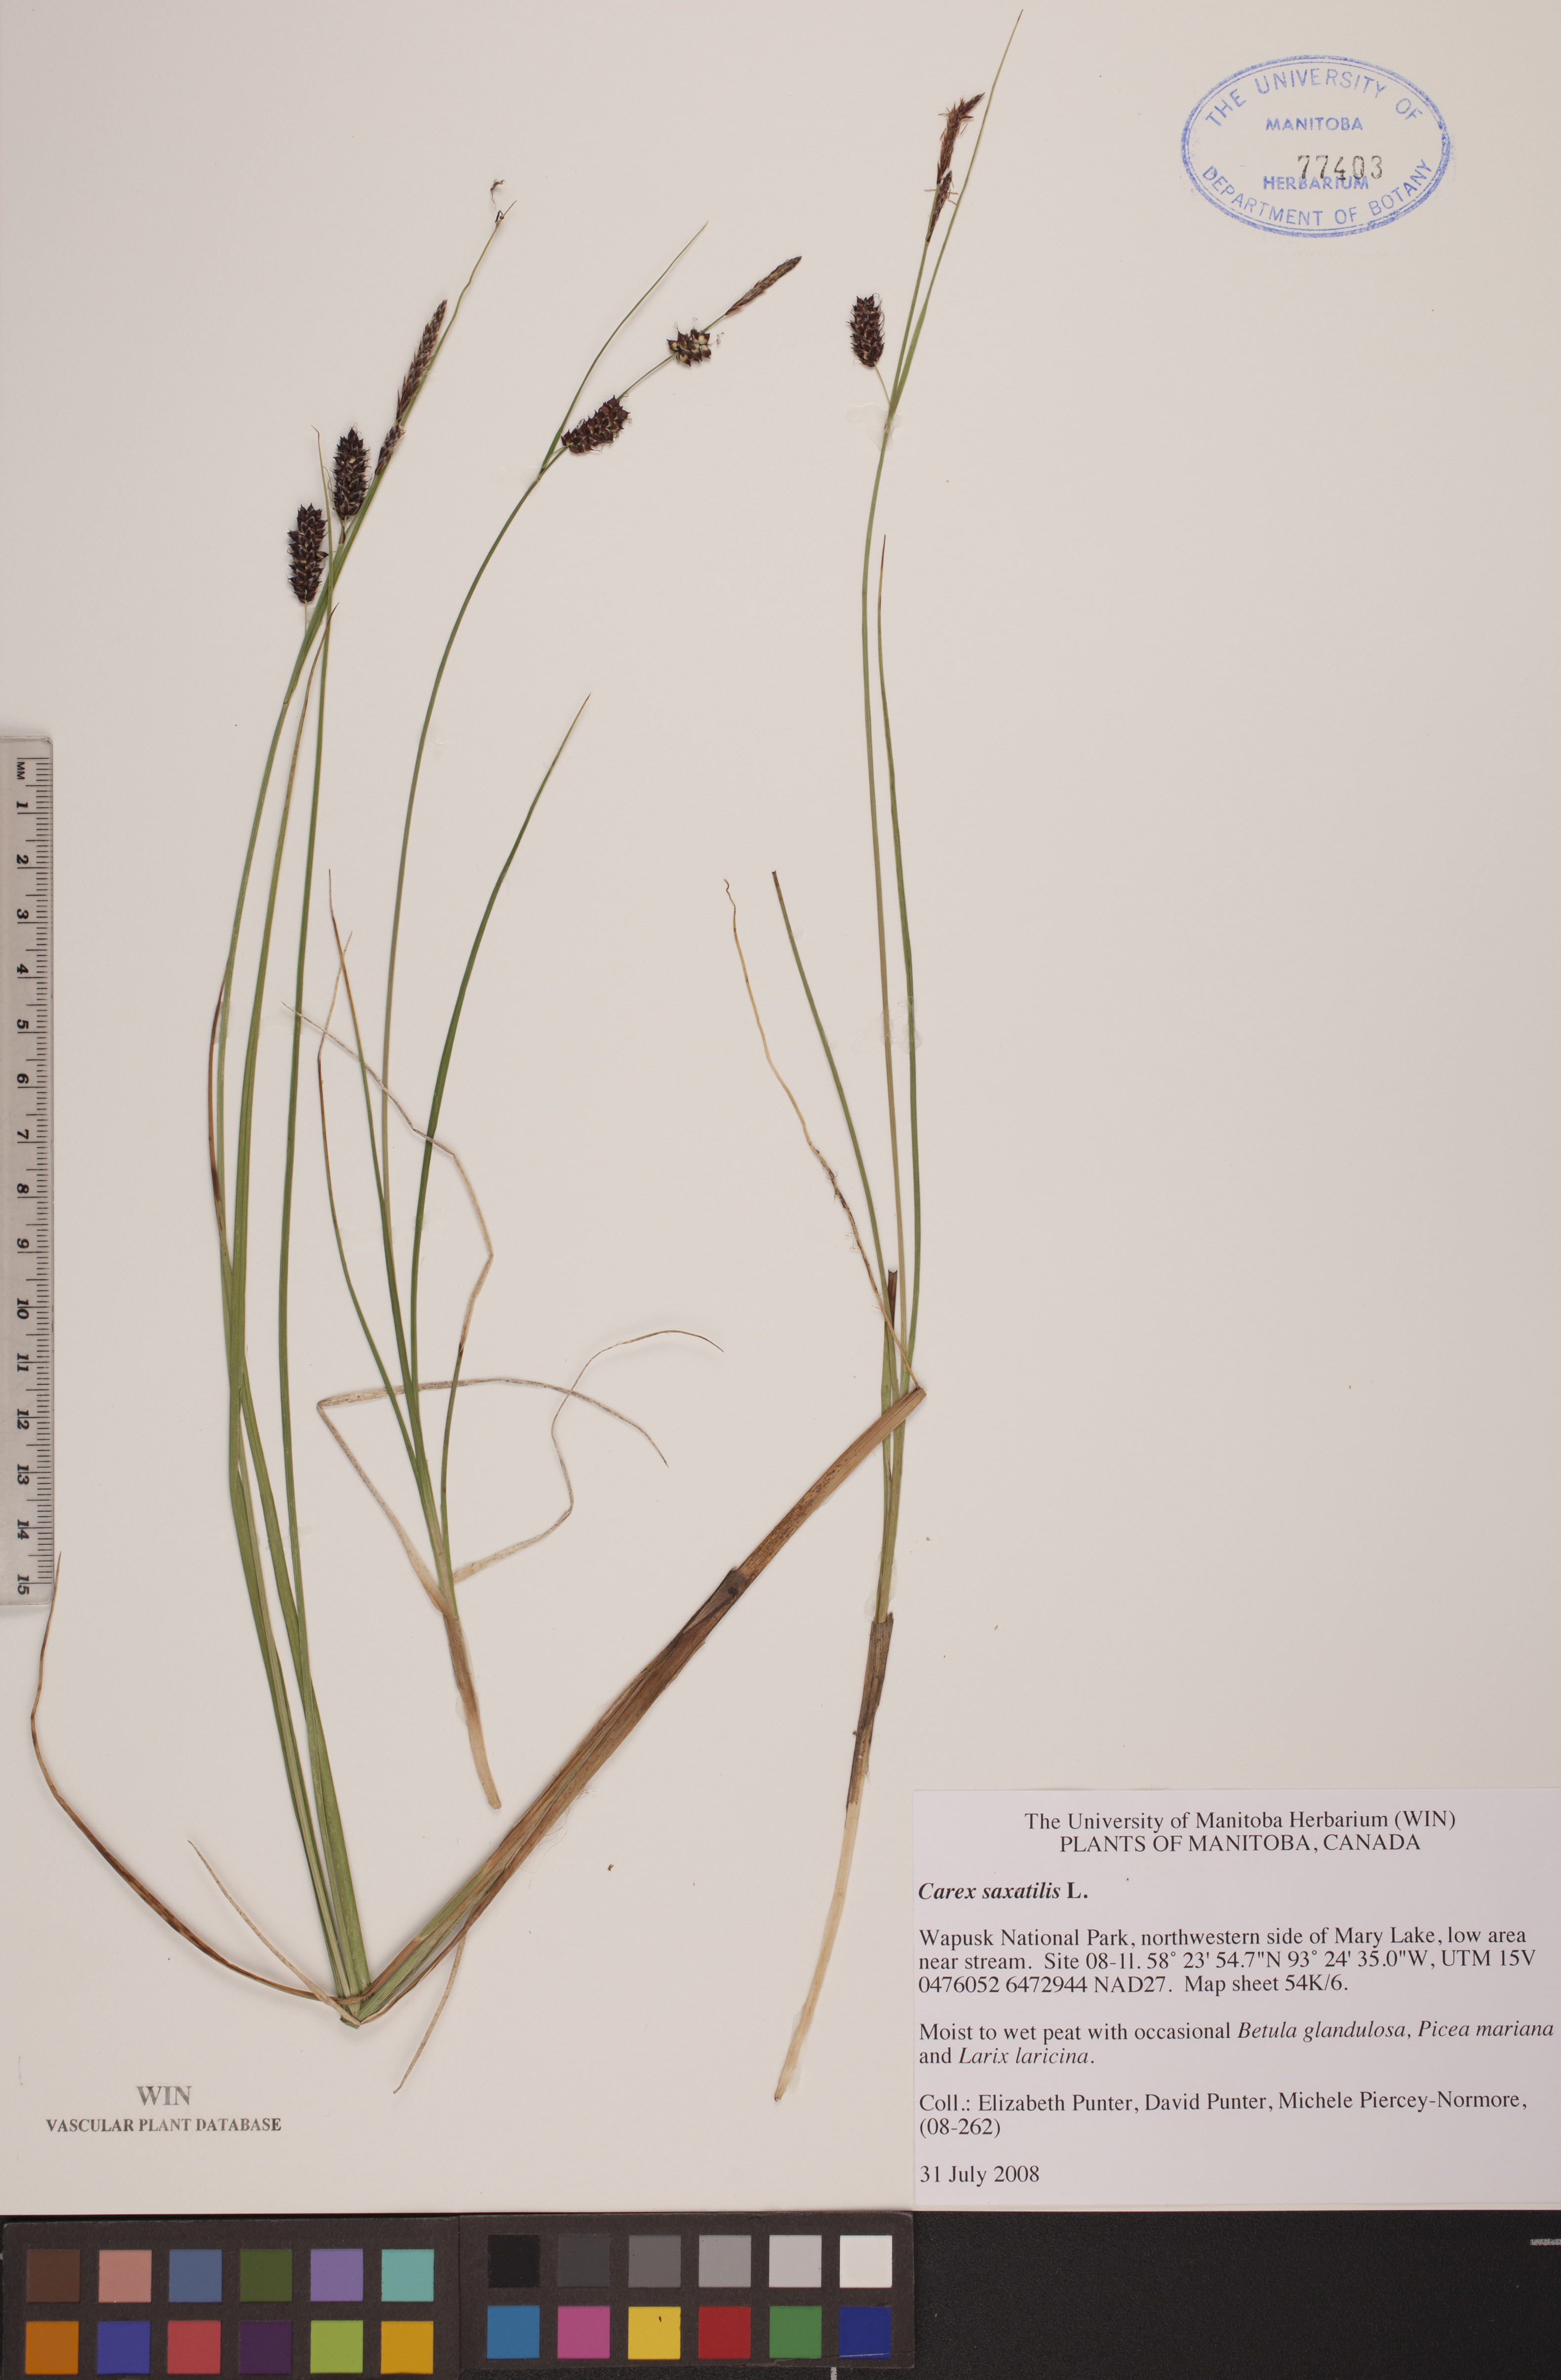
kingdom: Plantae
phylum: Tracheophyta
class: Liliopsida
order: Poales
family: Cyperaceae
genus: Carex
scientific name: Carex saxatilis
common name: Russet sedge
